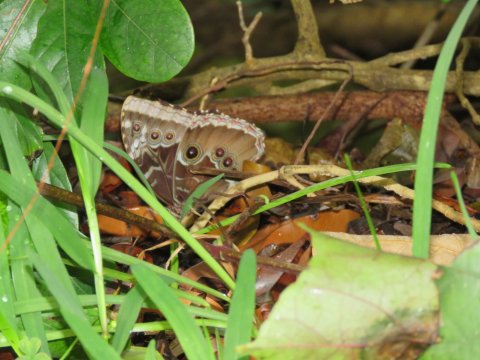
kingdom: Animalia
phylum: Arthropoda
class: Insecta
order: Lepidoptera
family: Nymphalidae
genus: Morpho
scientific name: Morpho helenor
